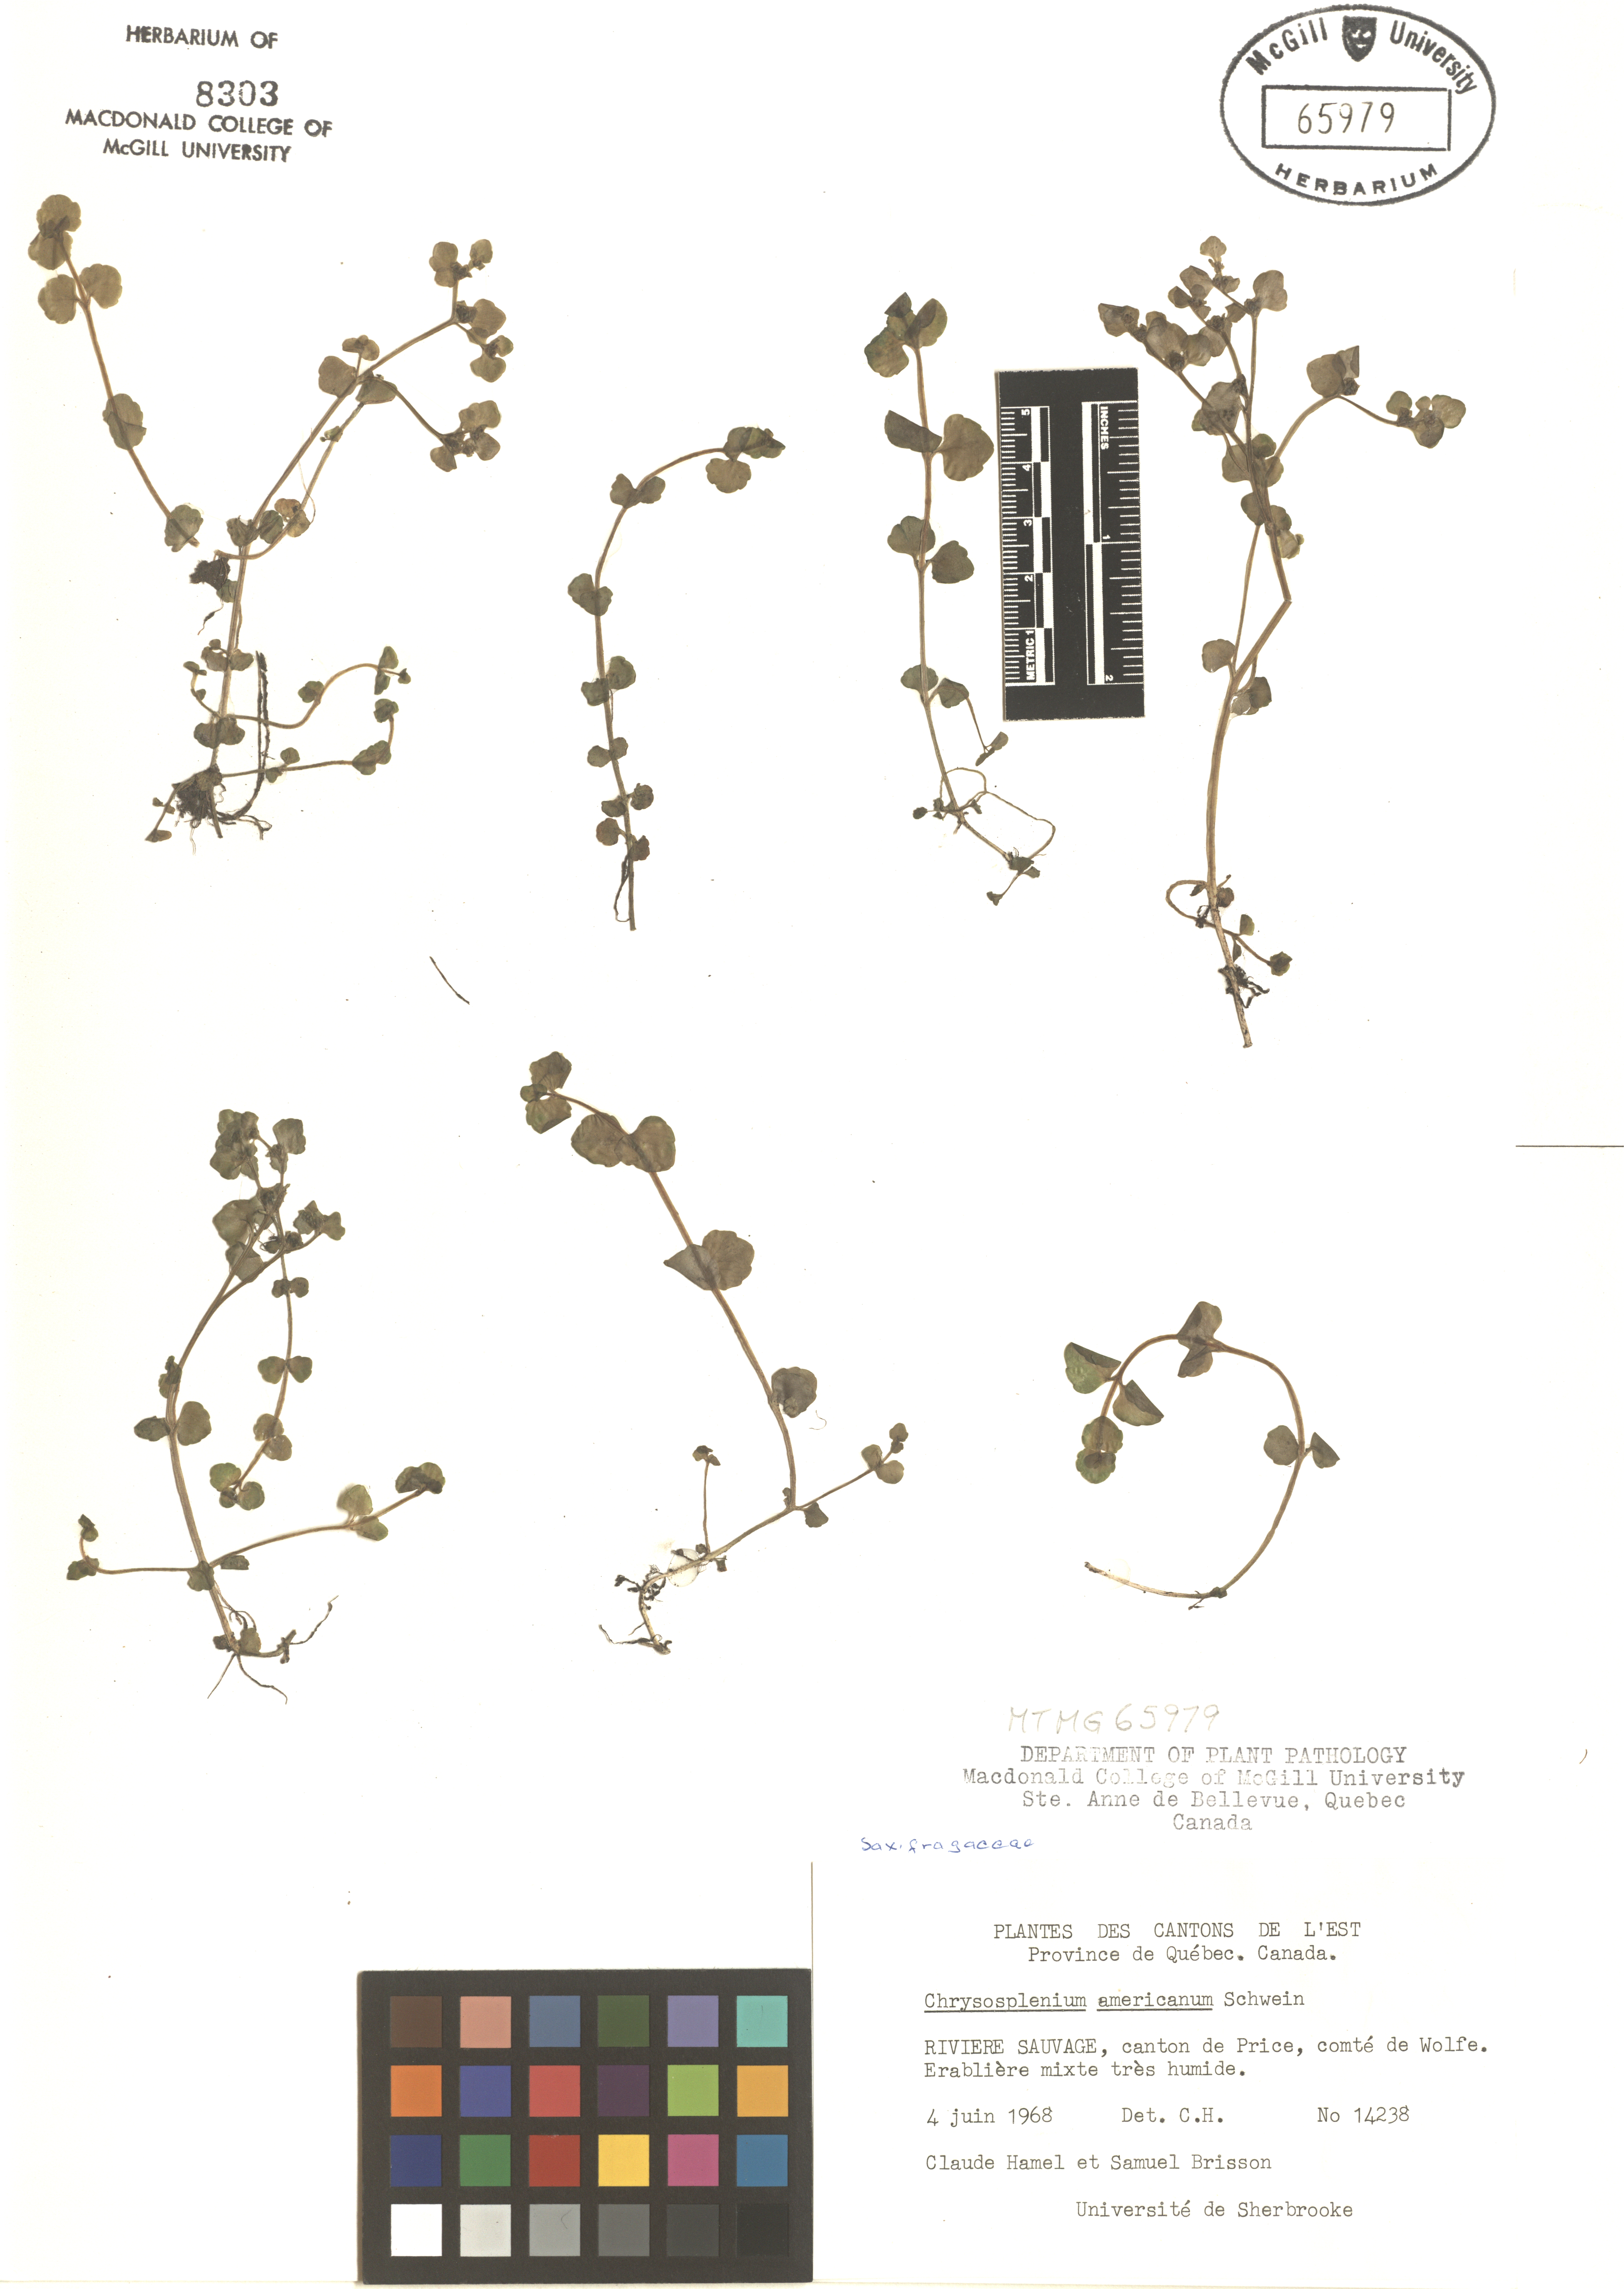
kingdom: Plantae
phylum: Tracheophyta
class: Magnoliopsida
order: Saxifragales
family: Saxifragaceae
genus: Chrysosplenium
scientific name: Chrysosplenium americanum
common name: American golden-saxifrage
